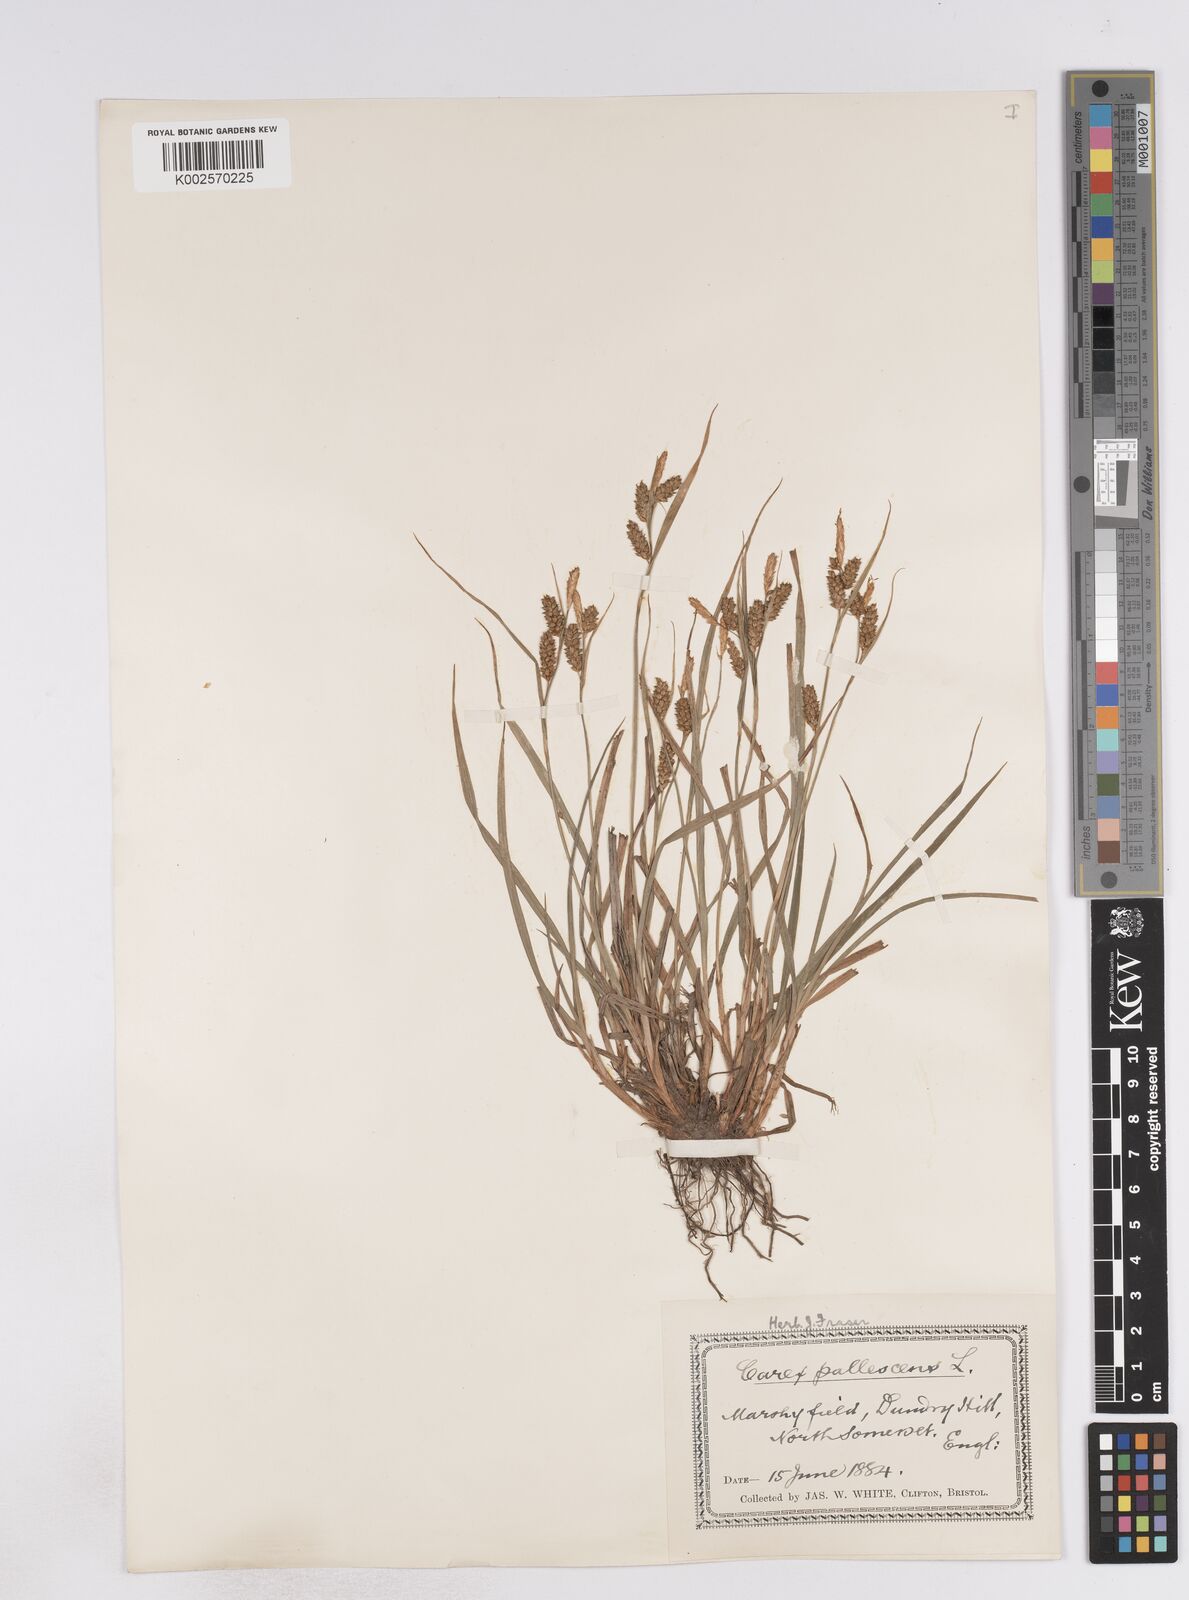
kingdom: Plantae
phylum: Tracheophyta
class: Liliopsida
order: Poales
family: Cyperaceae
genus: Carex
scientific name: Carex pallescens
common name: Pale sedge
